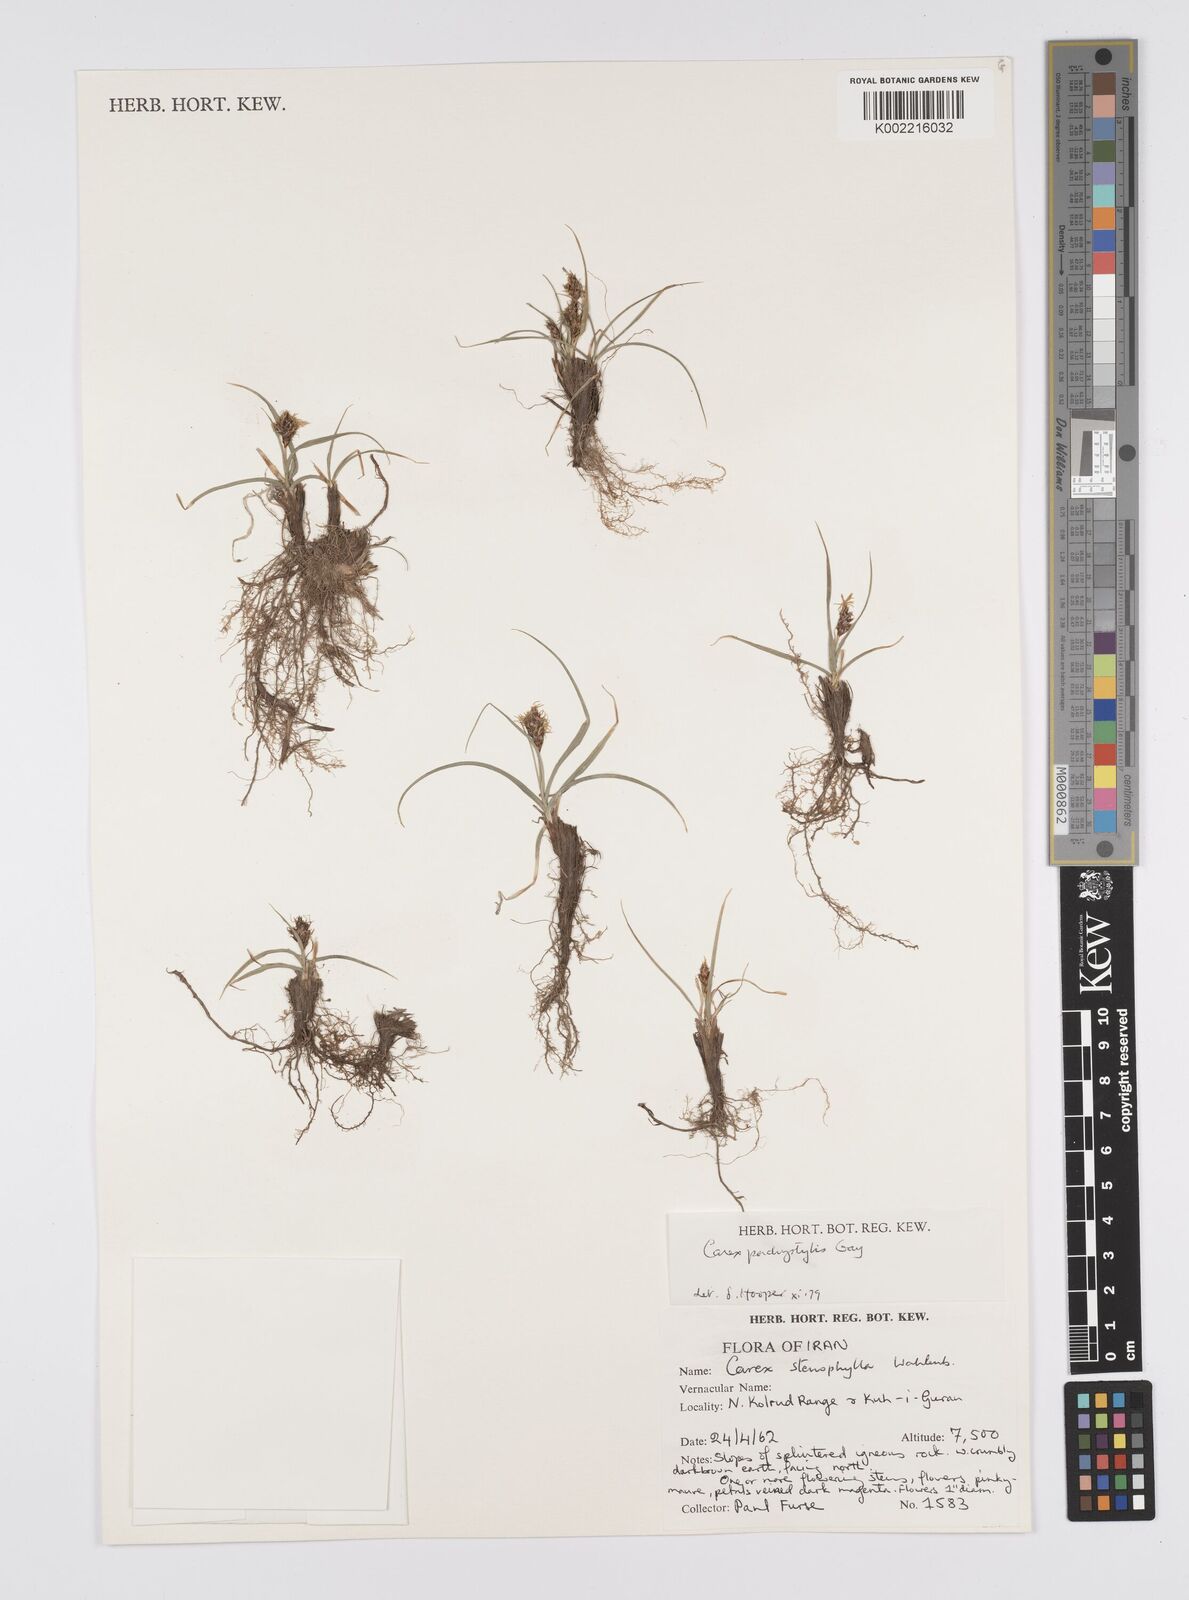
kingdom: Plantae
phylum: Tracheophyta
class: Liliopsida
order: Poales
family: Cyperaceae
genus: Carex
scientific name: Carex pachystylis
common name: Thick-stem sedge
